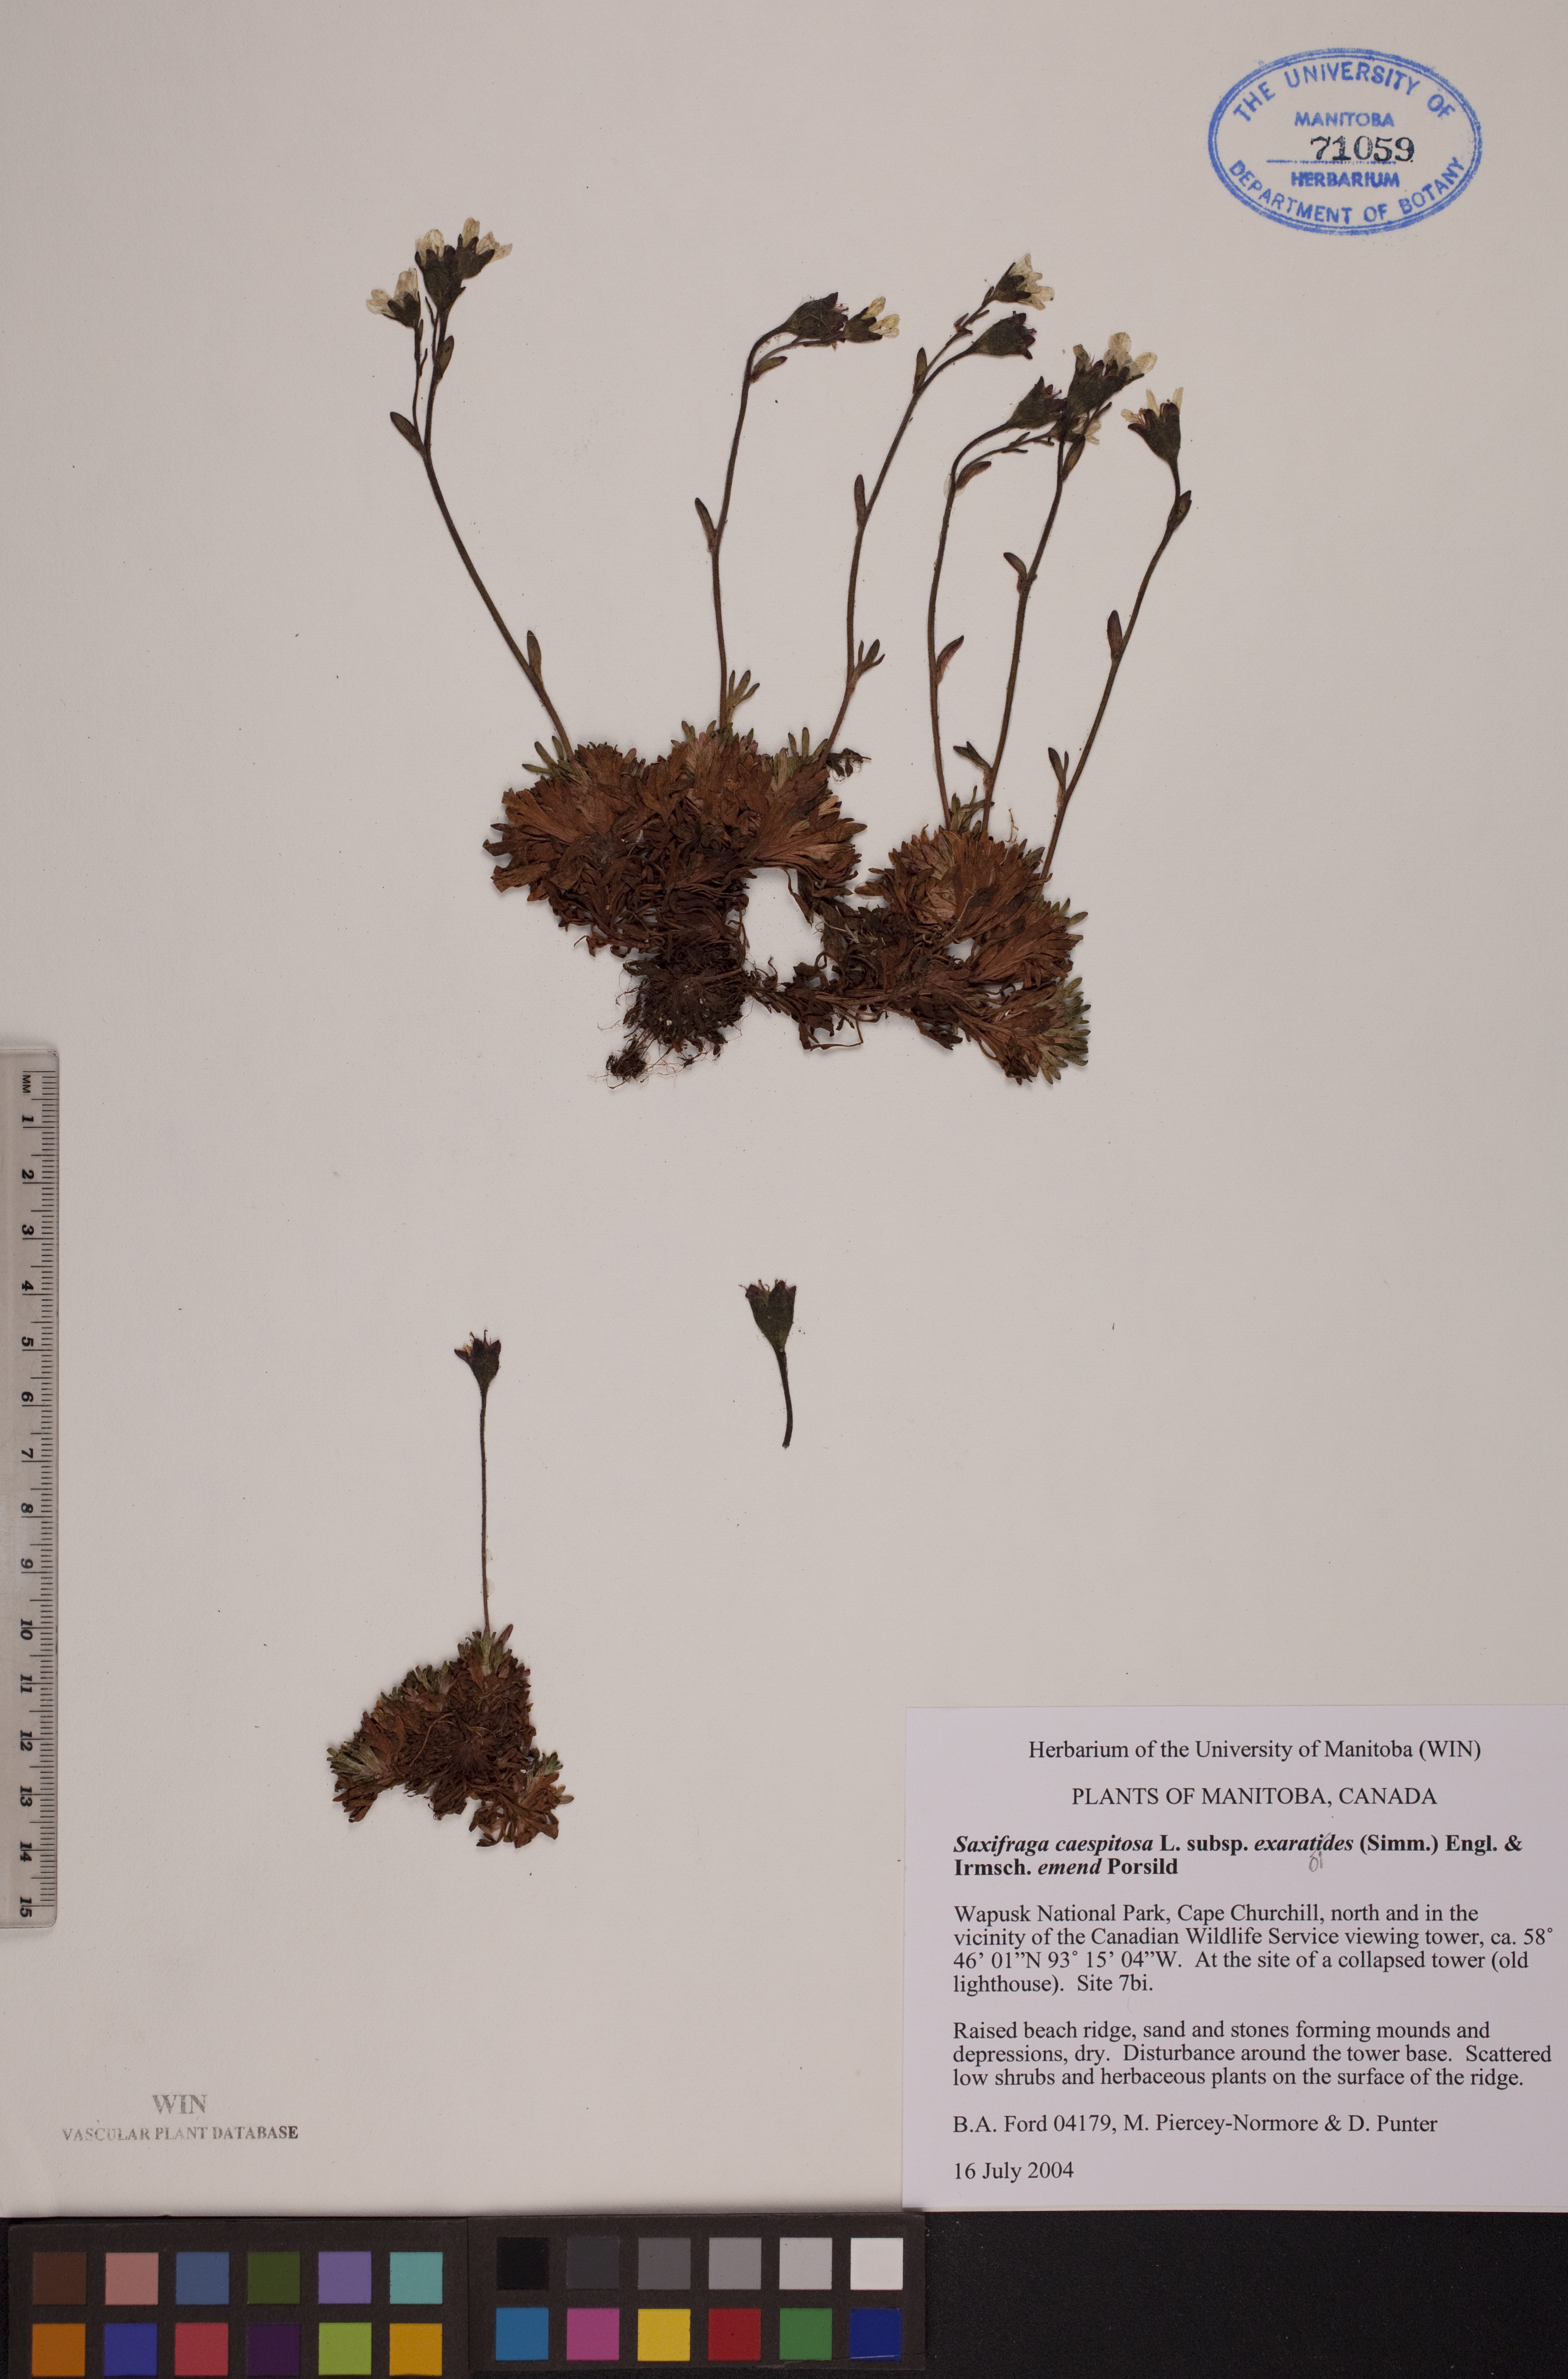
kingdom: Plantae
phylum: Tracheophyta
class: Magnoliopsida
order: Saxifragales
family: Saxifragaceae
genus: Saxifraga
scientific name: Saxifraga cespitosa
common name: Tufted saxifrage
